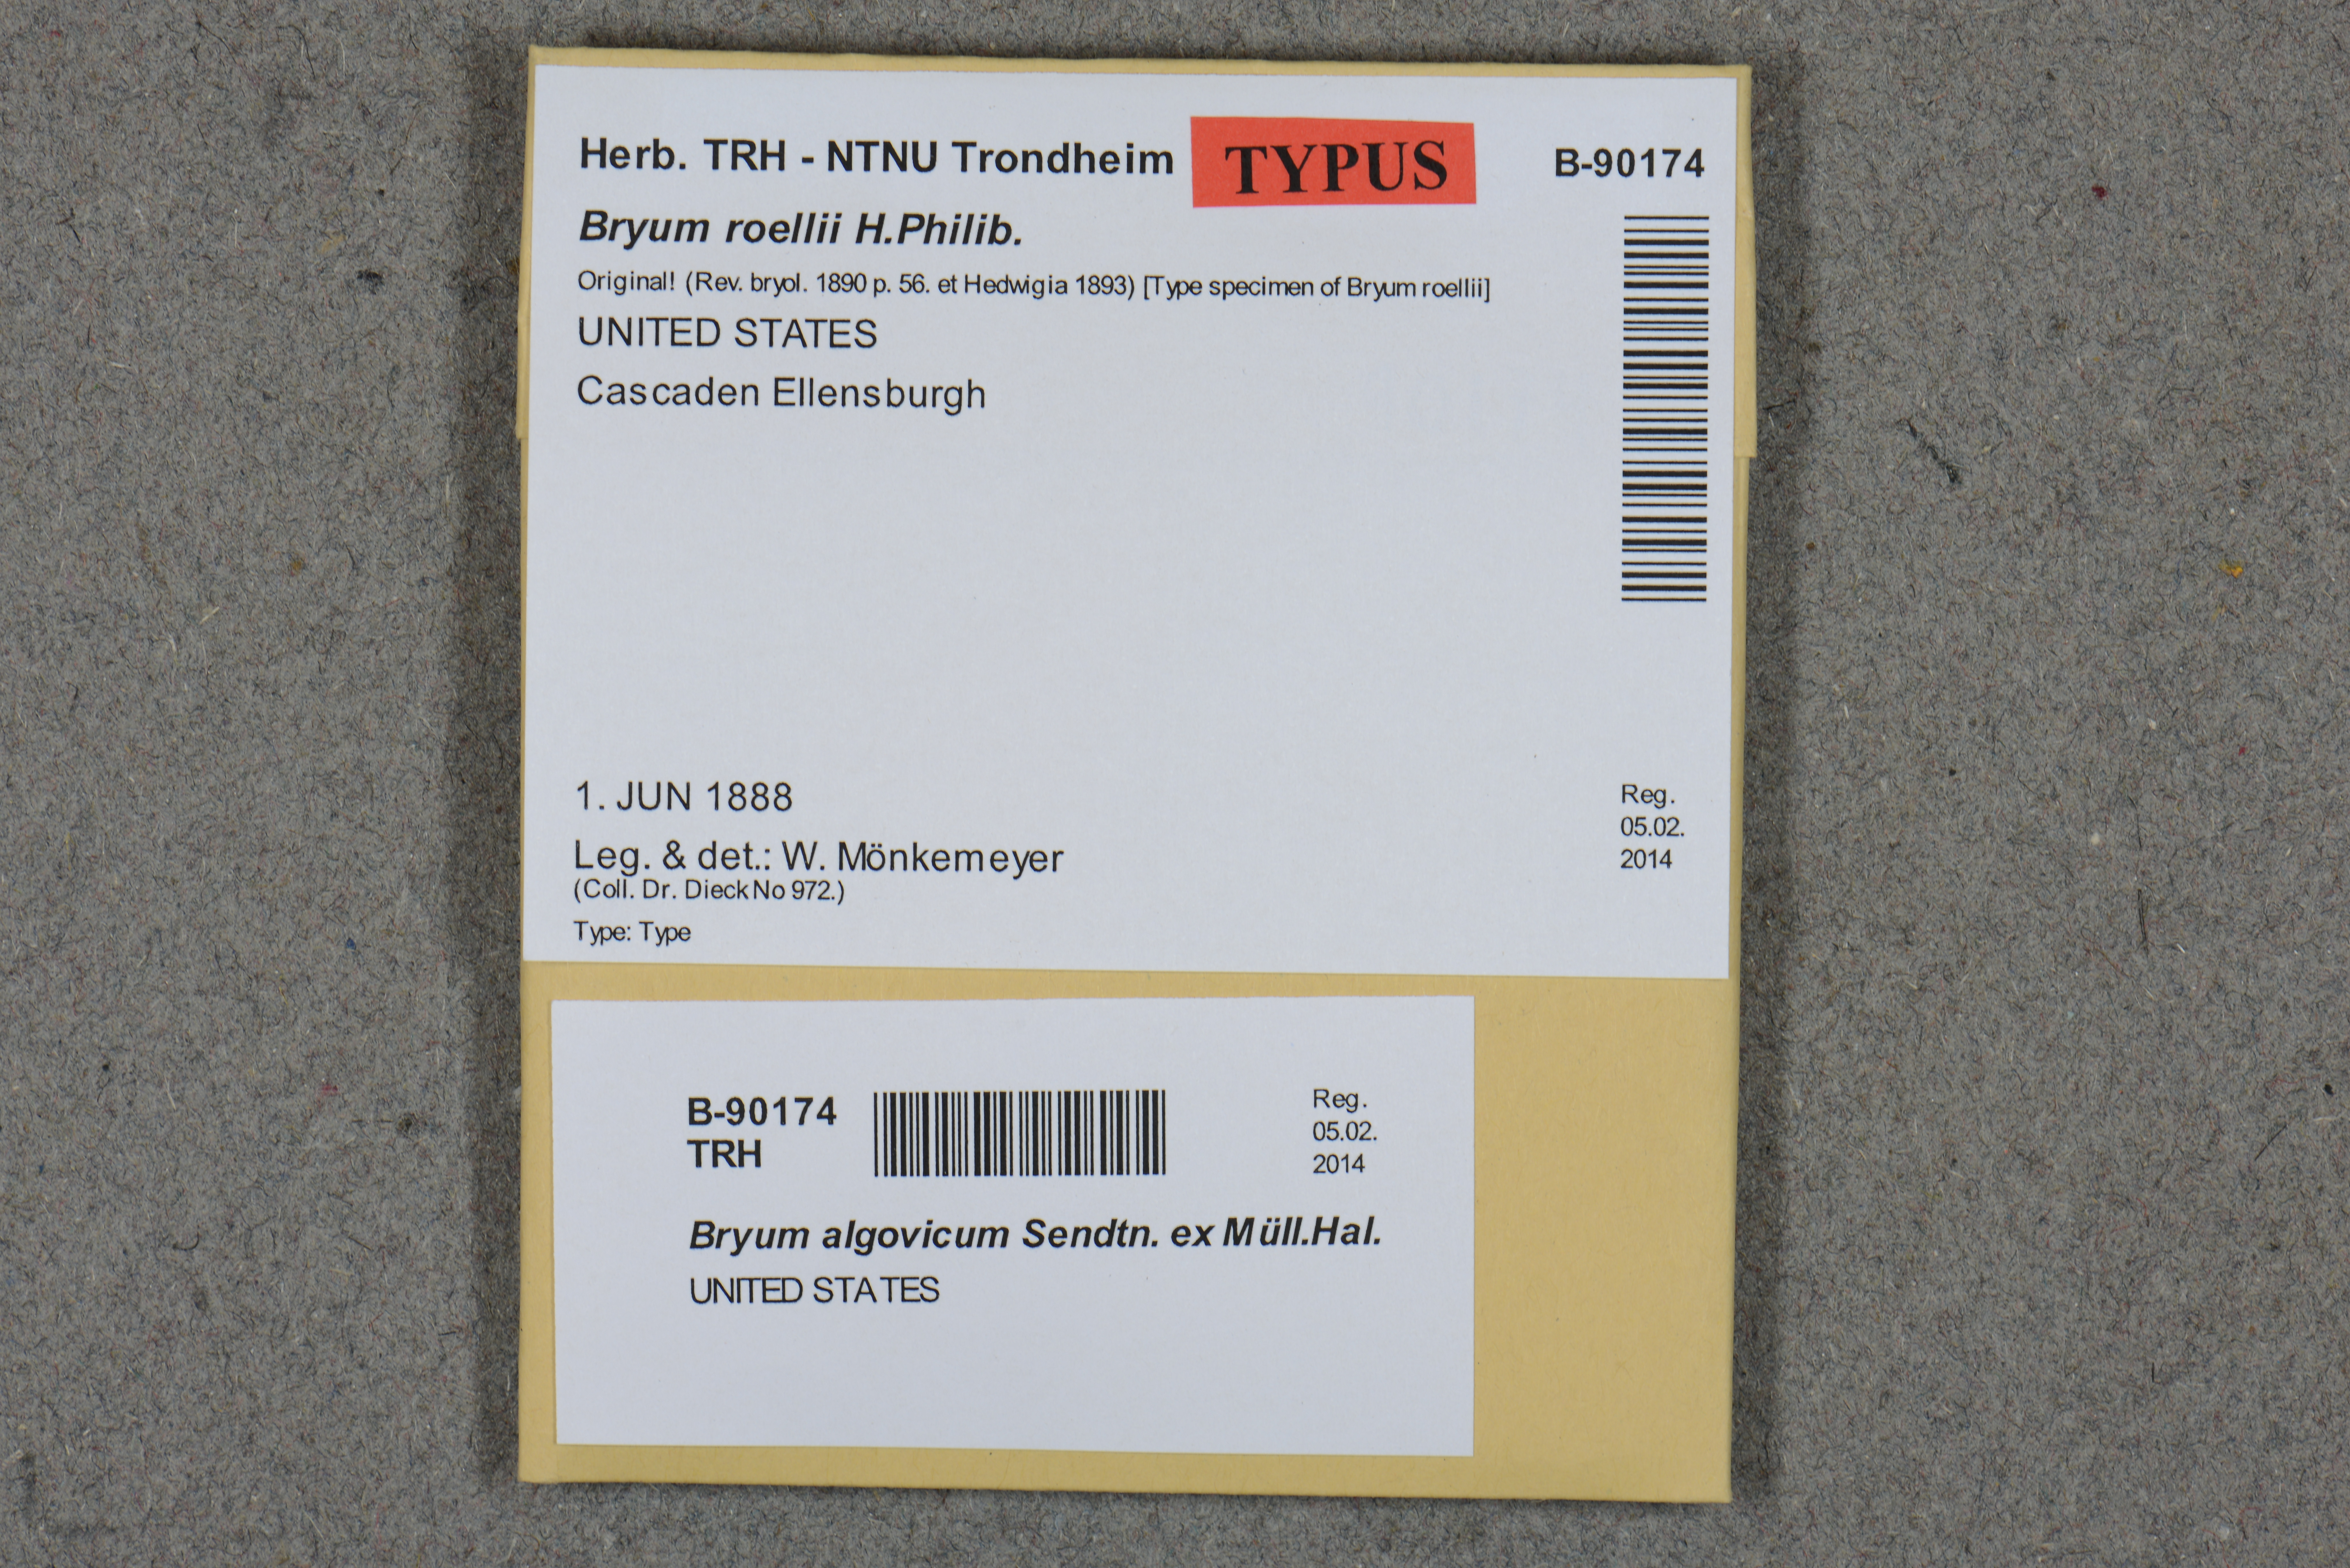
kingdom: Plantae
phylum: Bryophyta
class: Bryopsida
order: Bryales
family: Bryaceae
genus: Ptychostomum
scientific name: Ptychostomum compactum
